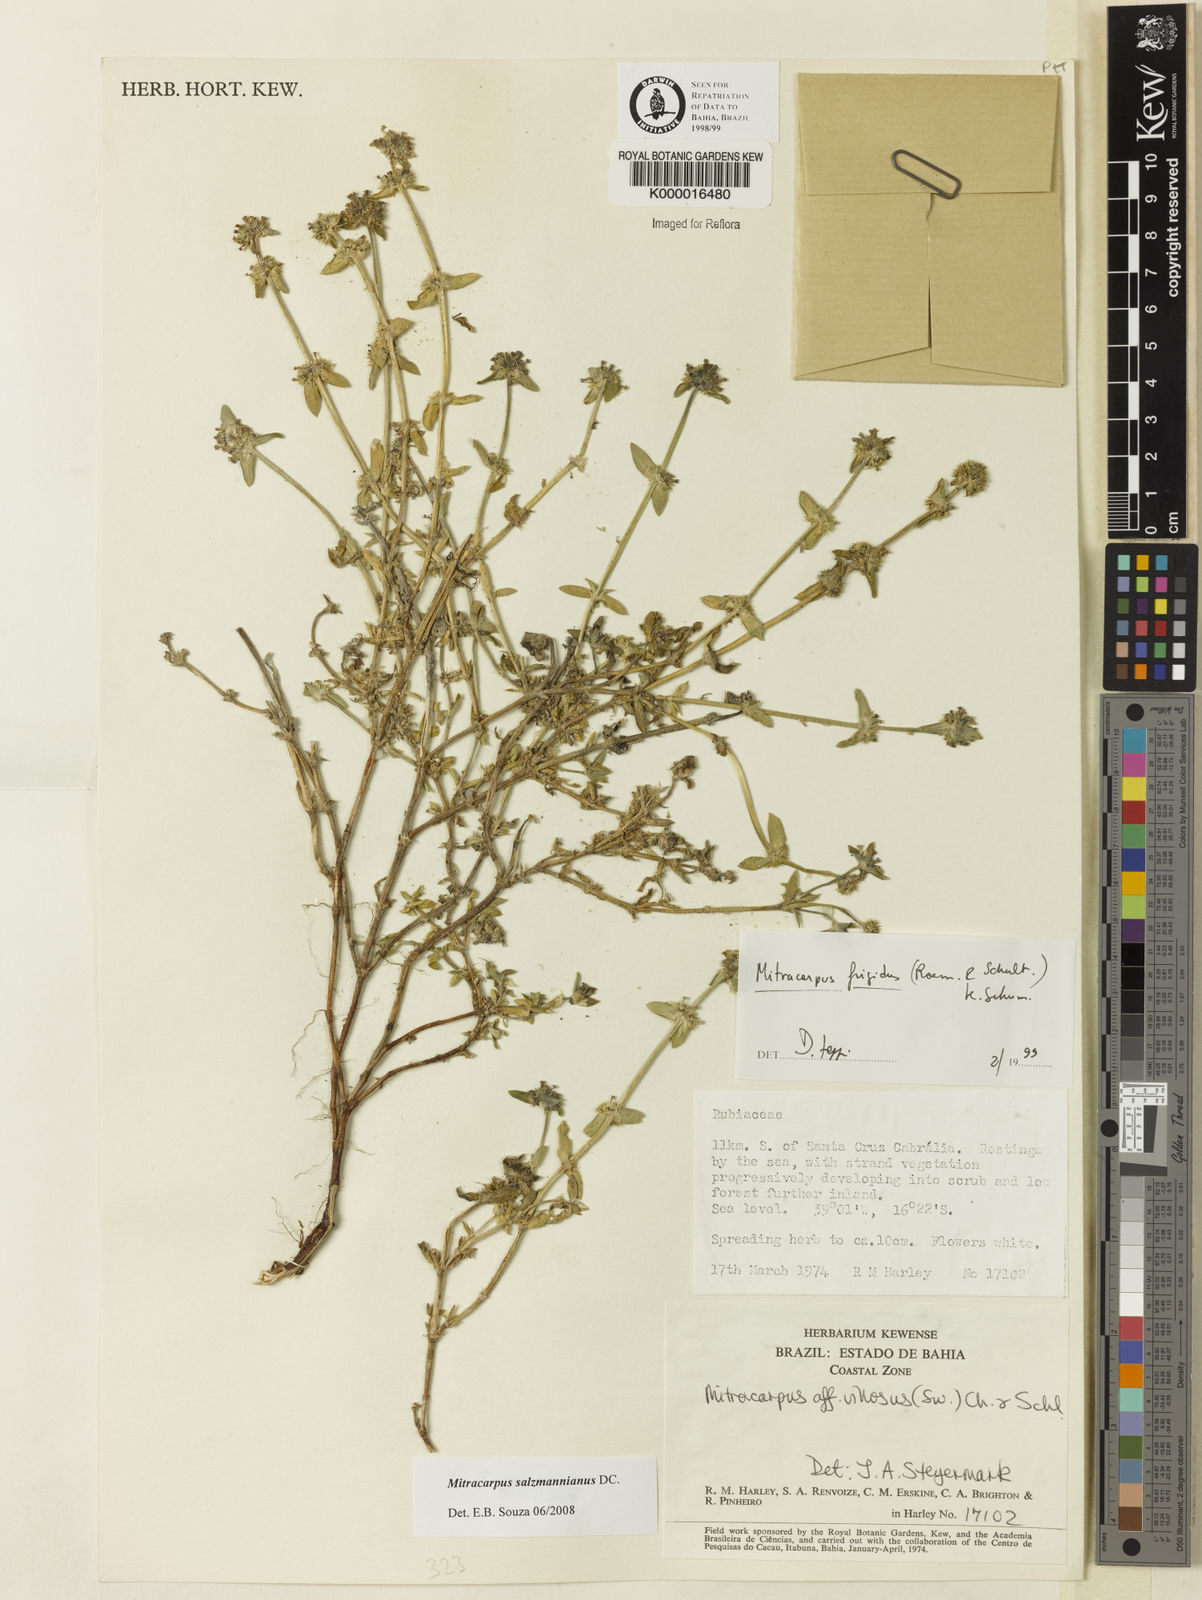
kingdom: Plantae
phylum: Tracheophyta
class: Magnoliopsida
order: Gentianales
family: Rubiaceae
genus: Mitracarpus
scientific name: Mitracarpus salzmannianus
